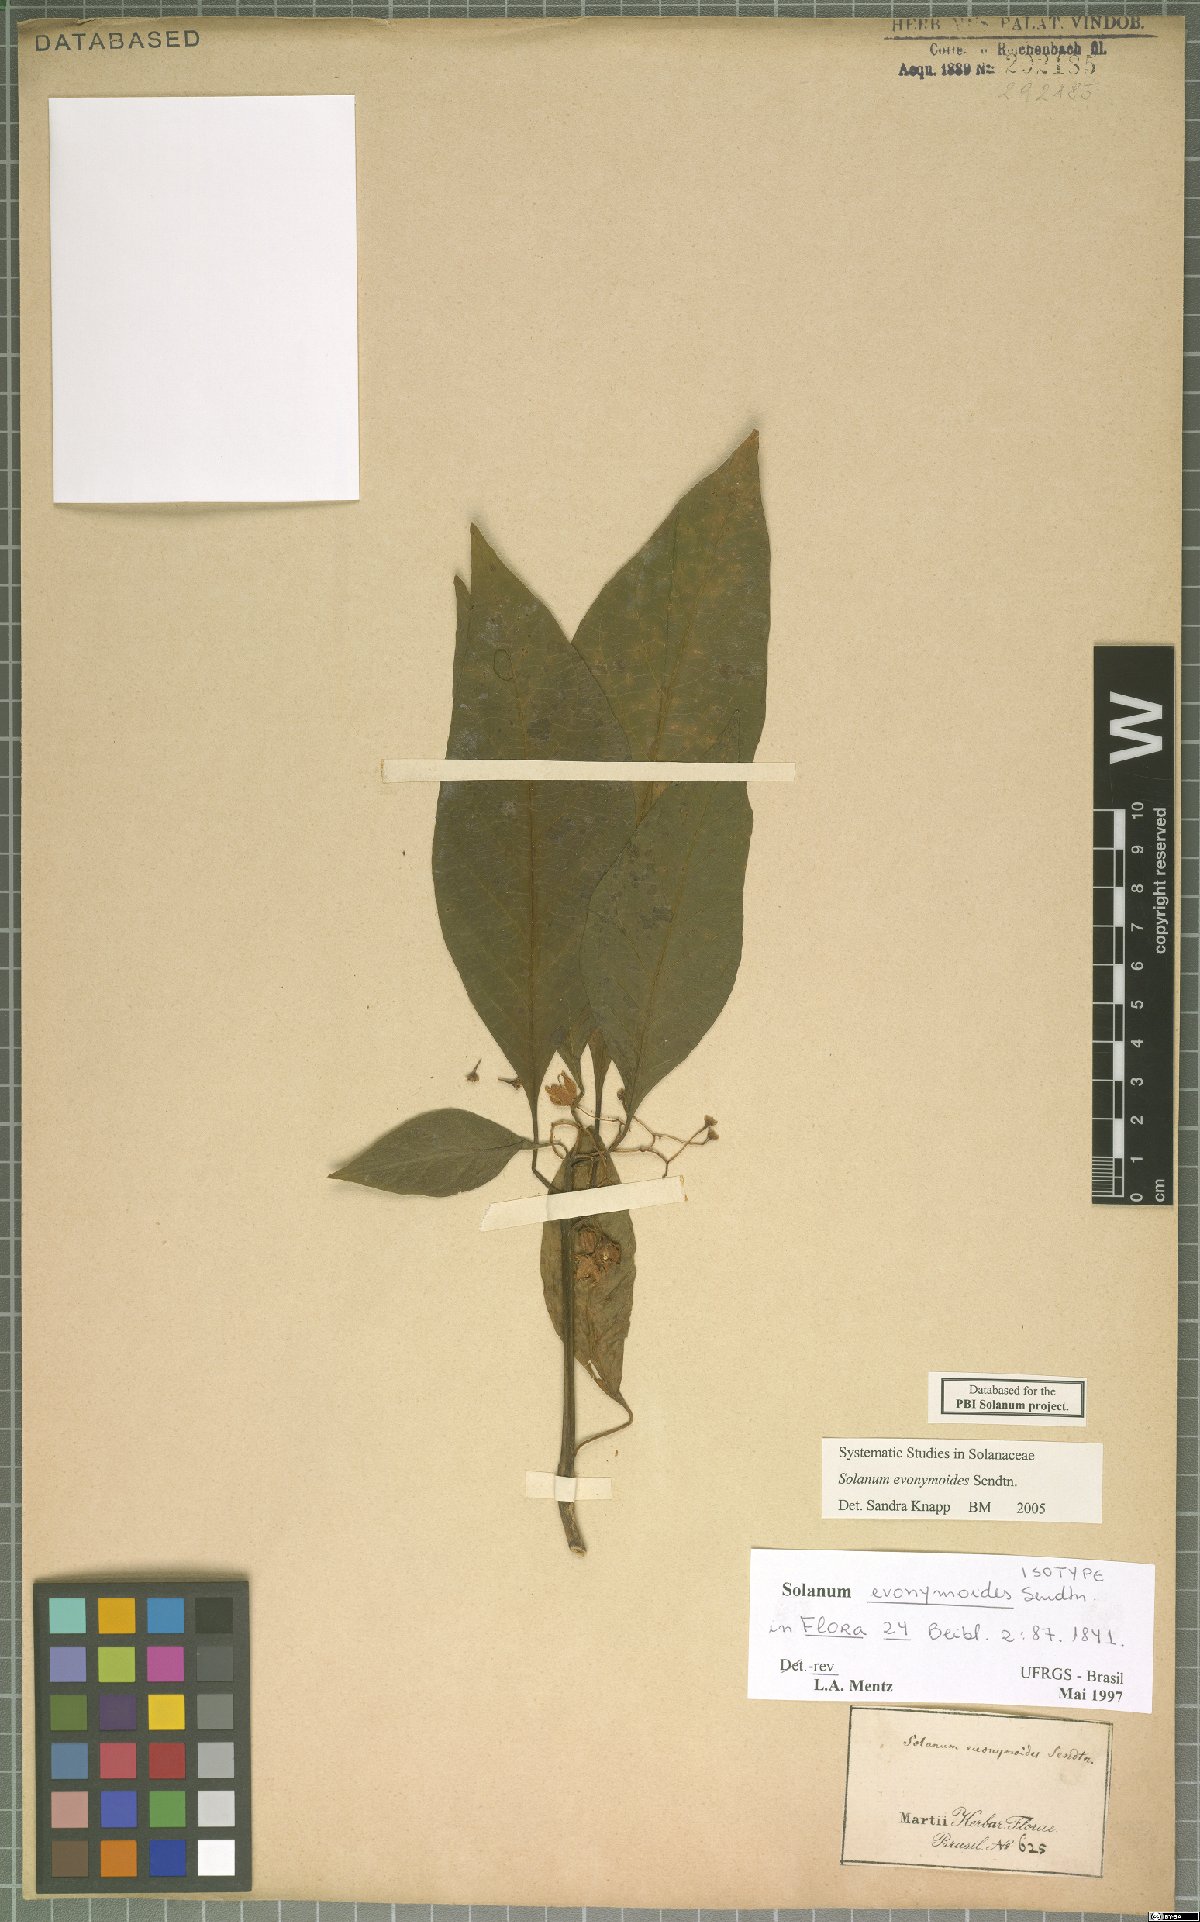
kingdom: Plantae
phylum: Tracheophyta
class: Magnoliopsida
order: Solanales
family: Solanaceae
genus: Solanum
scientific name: Solanum evonymoides
